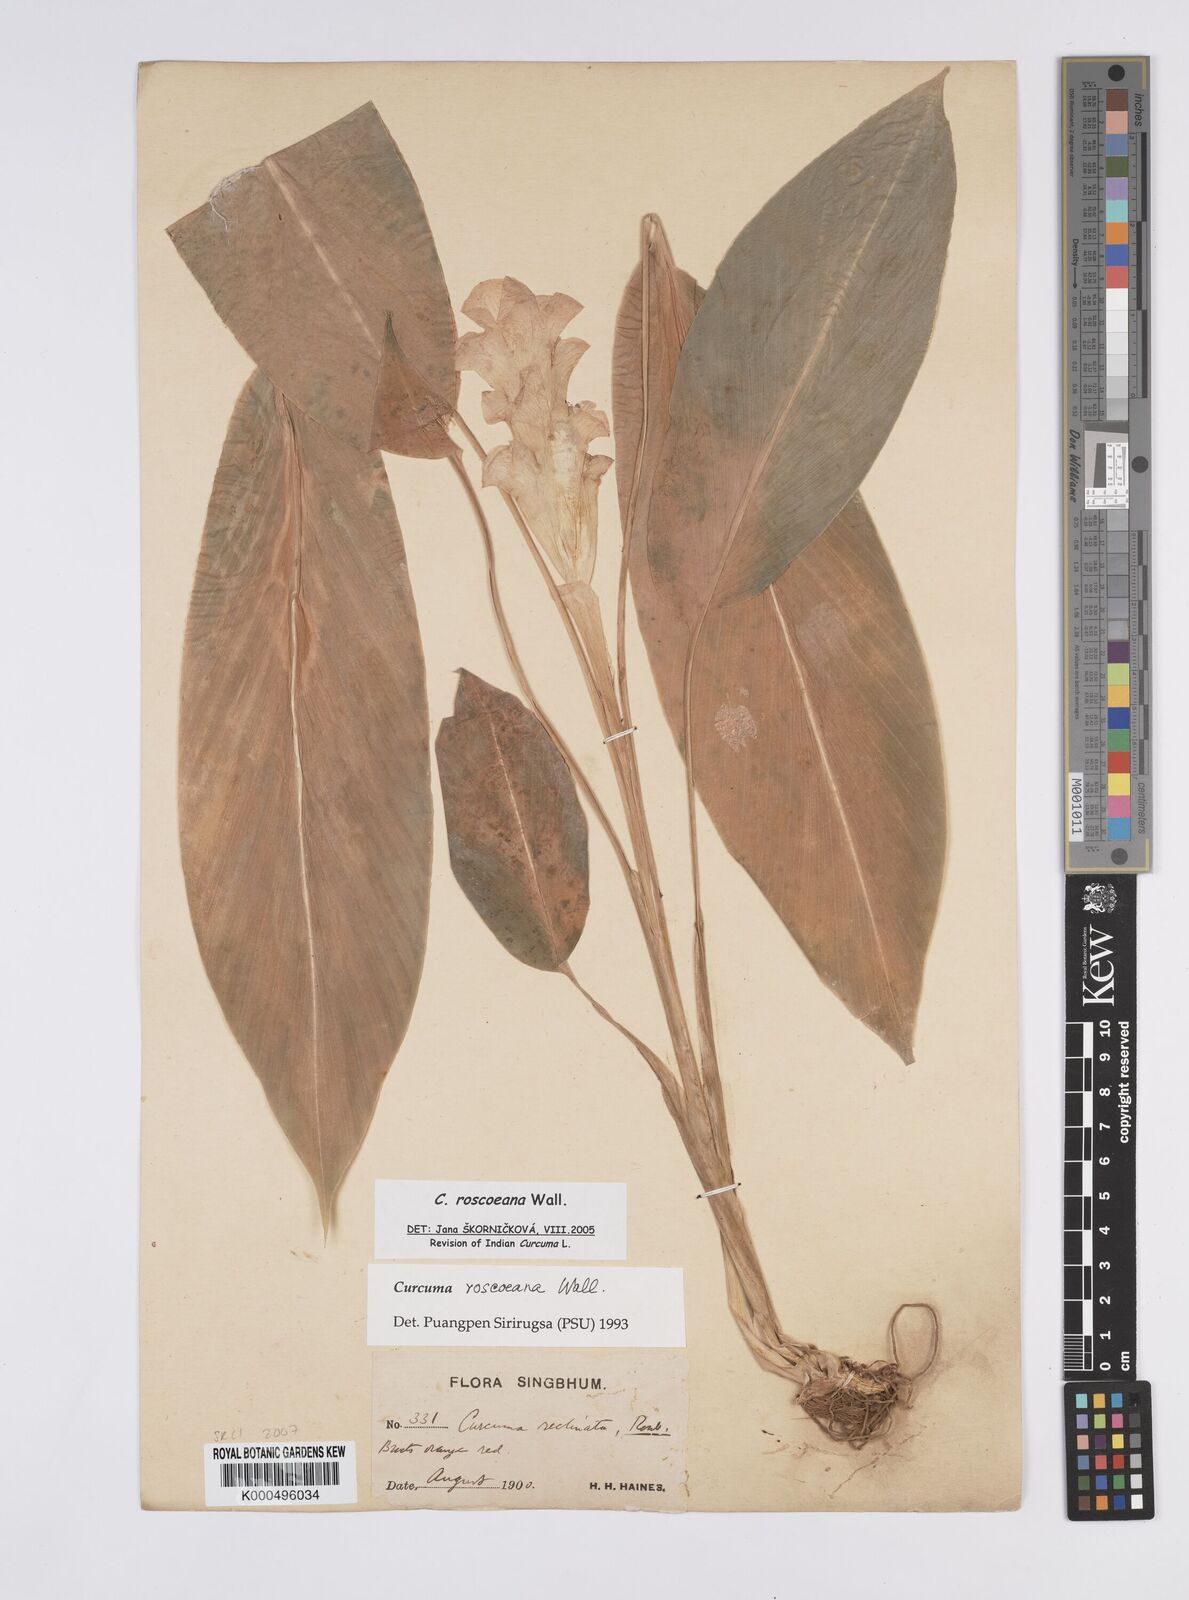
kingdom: Plantae
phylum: Tracheophyta
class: Liliopsida
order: Zingiberales
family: Zingiberaceae
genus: Curcuma
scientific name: Curcuma roscoeana
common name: Jewel of burma
